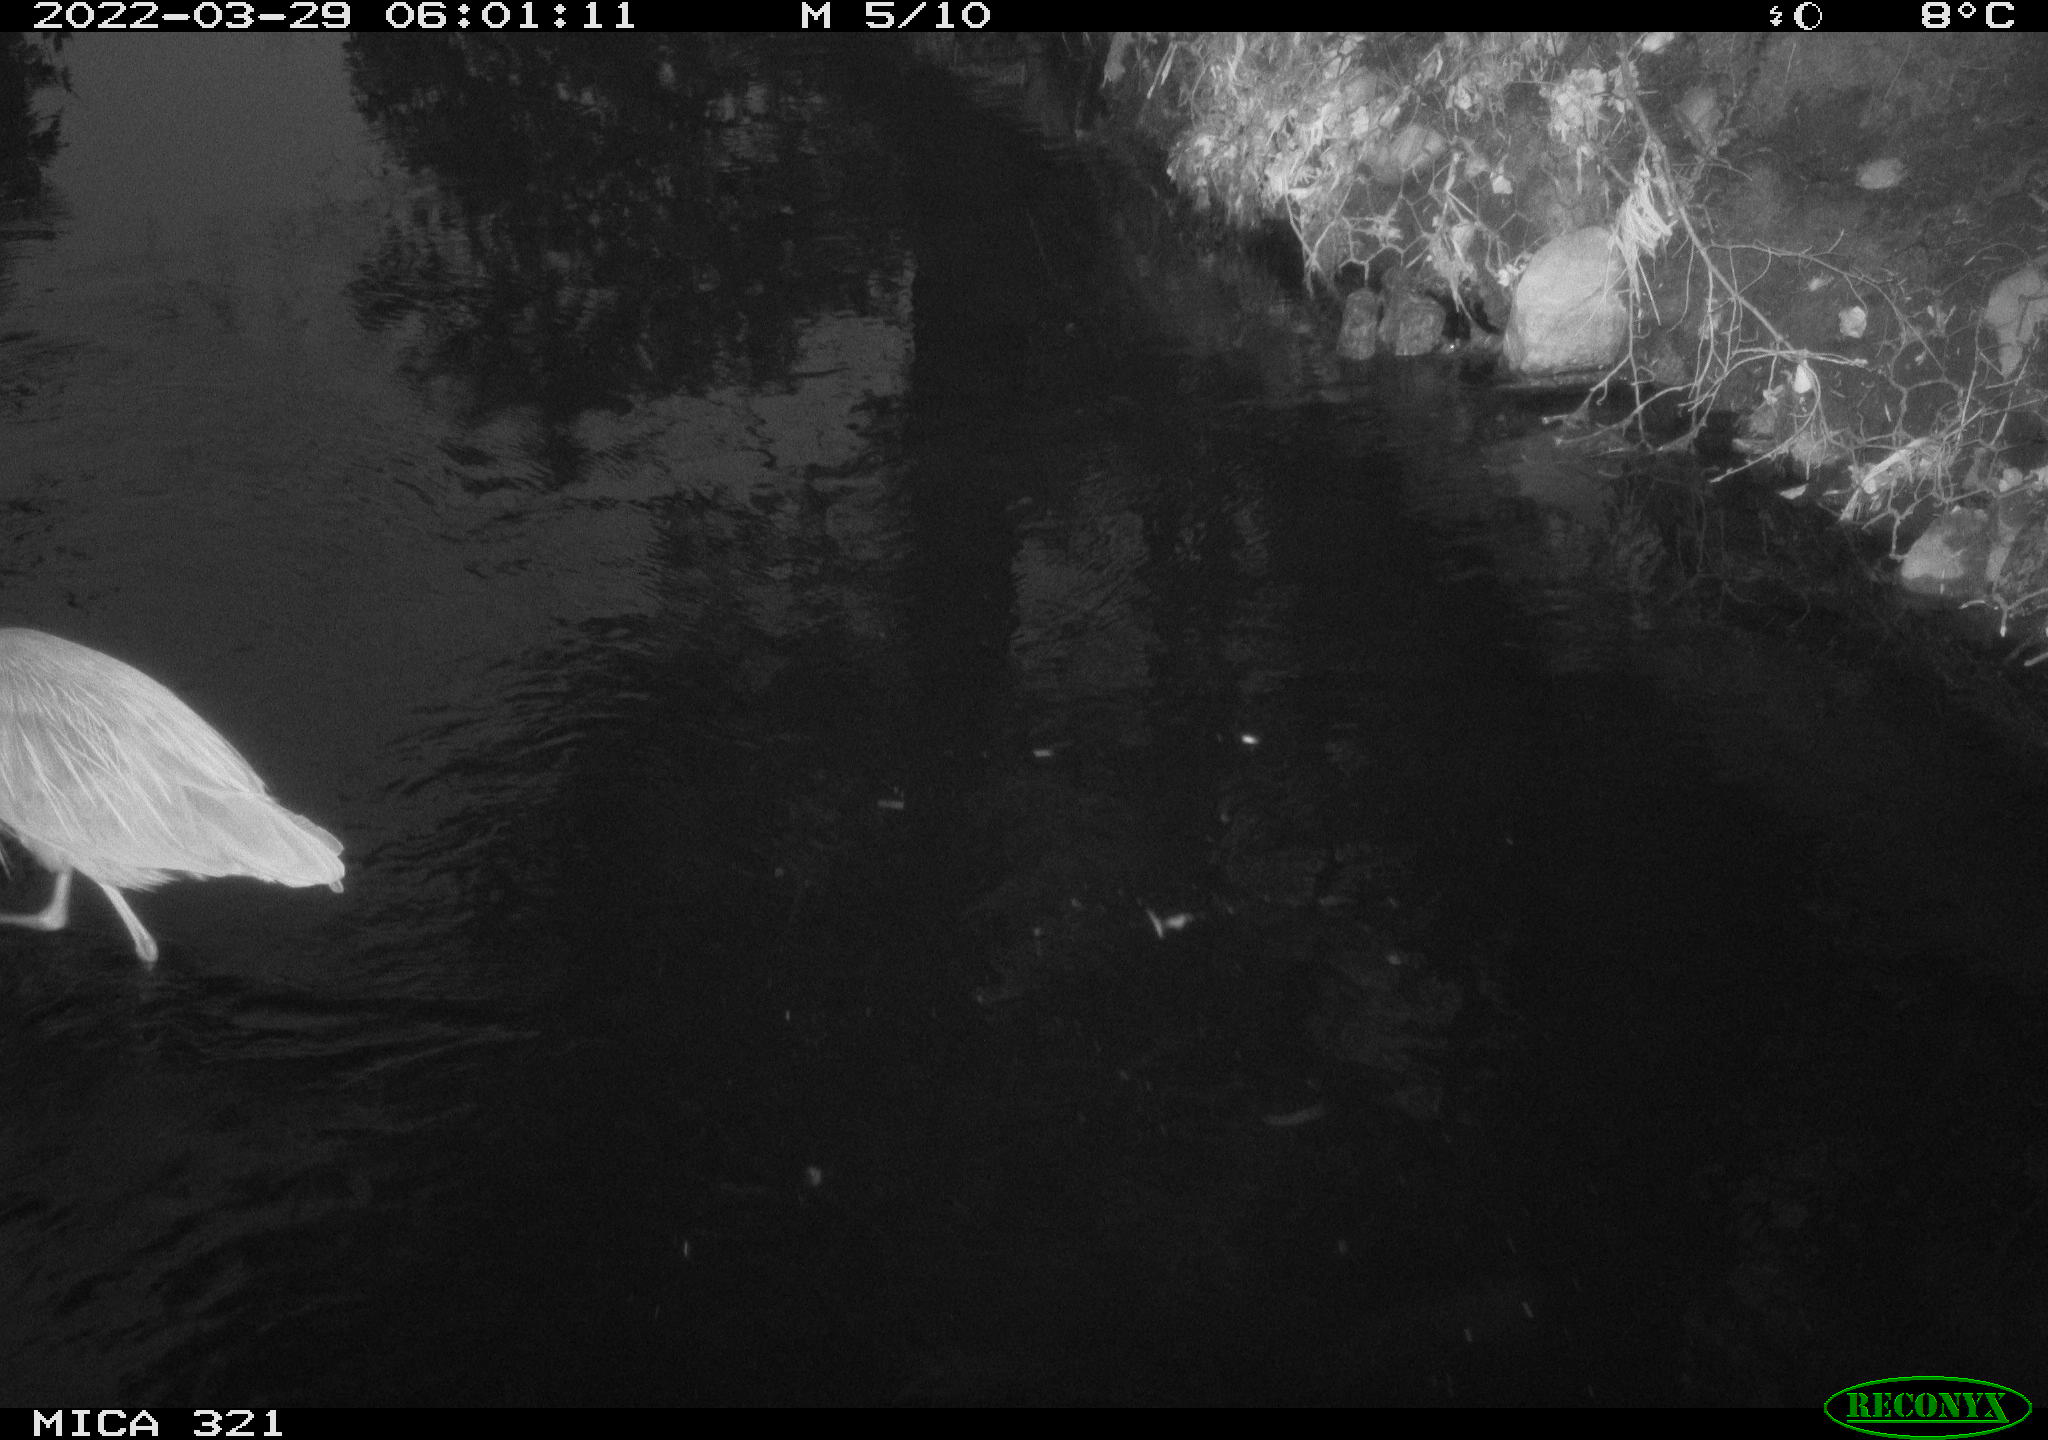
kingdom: Animalia
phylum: Chordata
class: Aves
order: Pelecaniformes
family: Ardeidae
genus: Ardea
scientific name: Ardea
